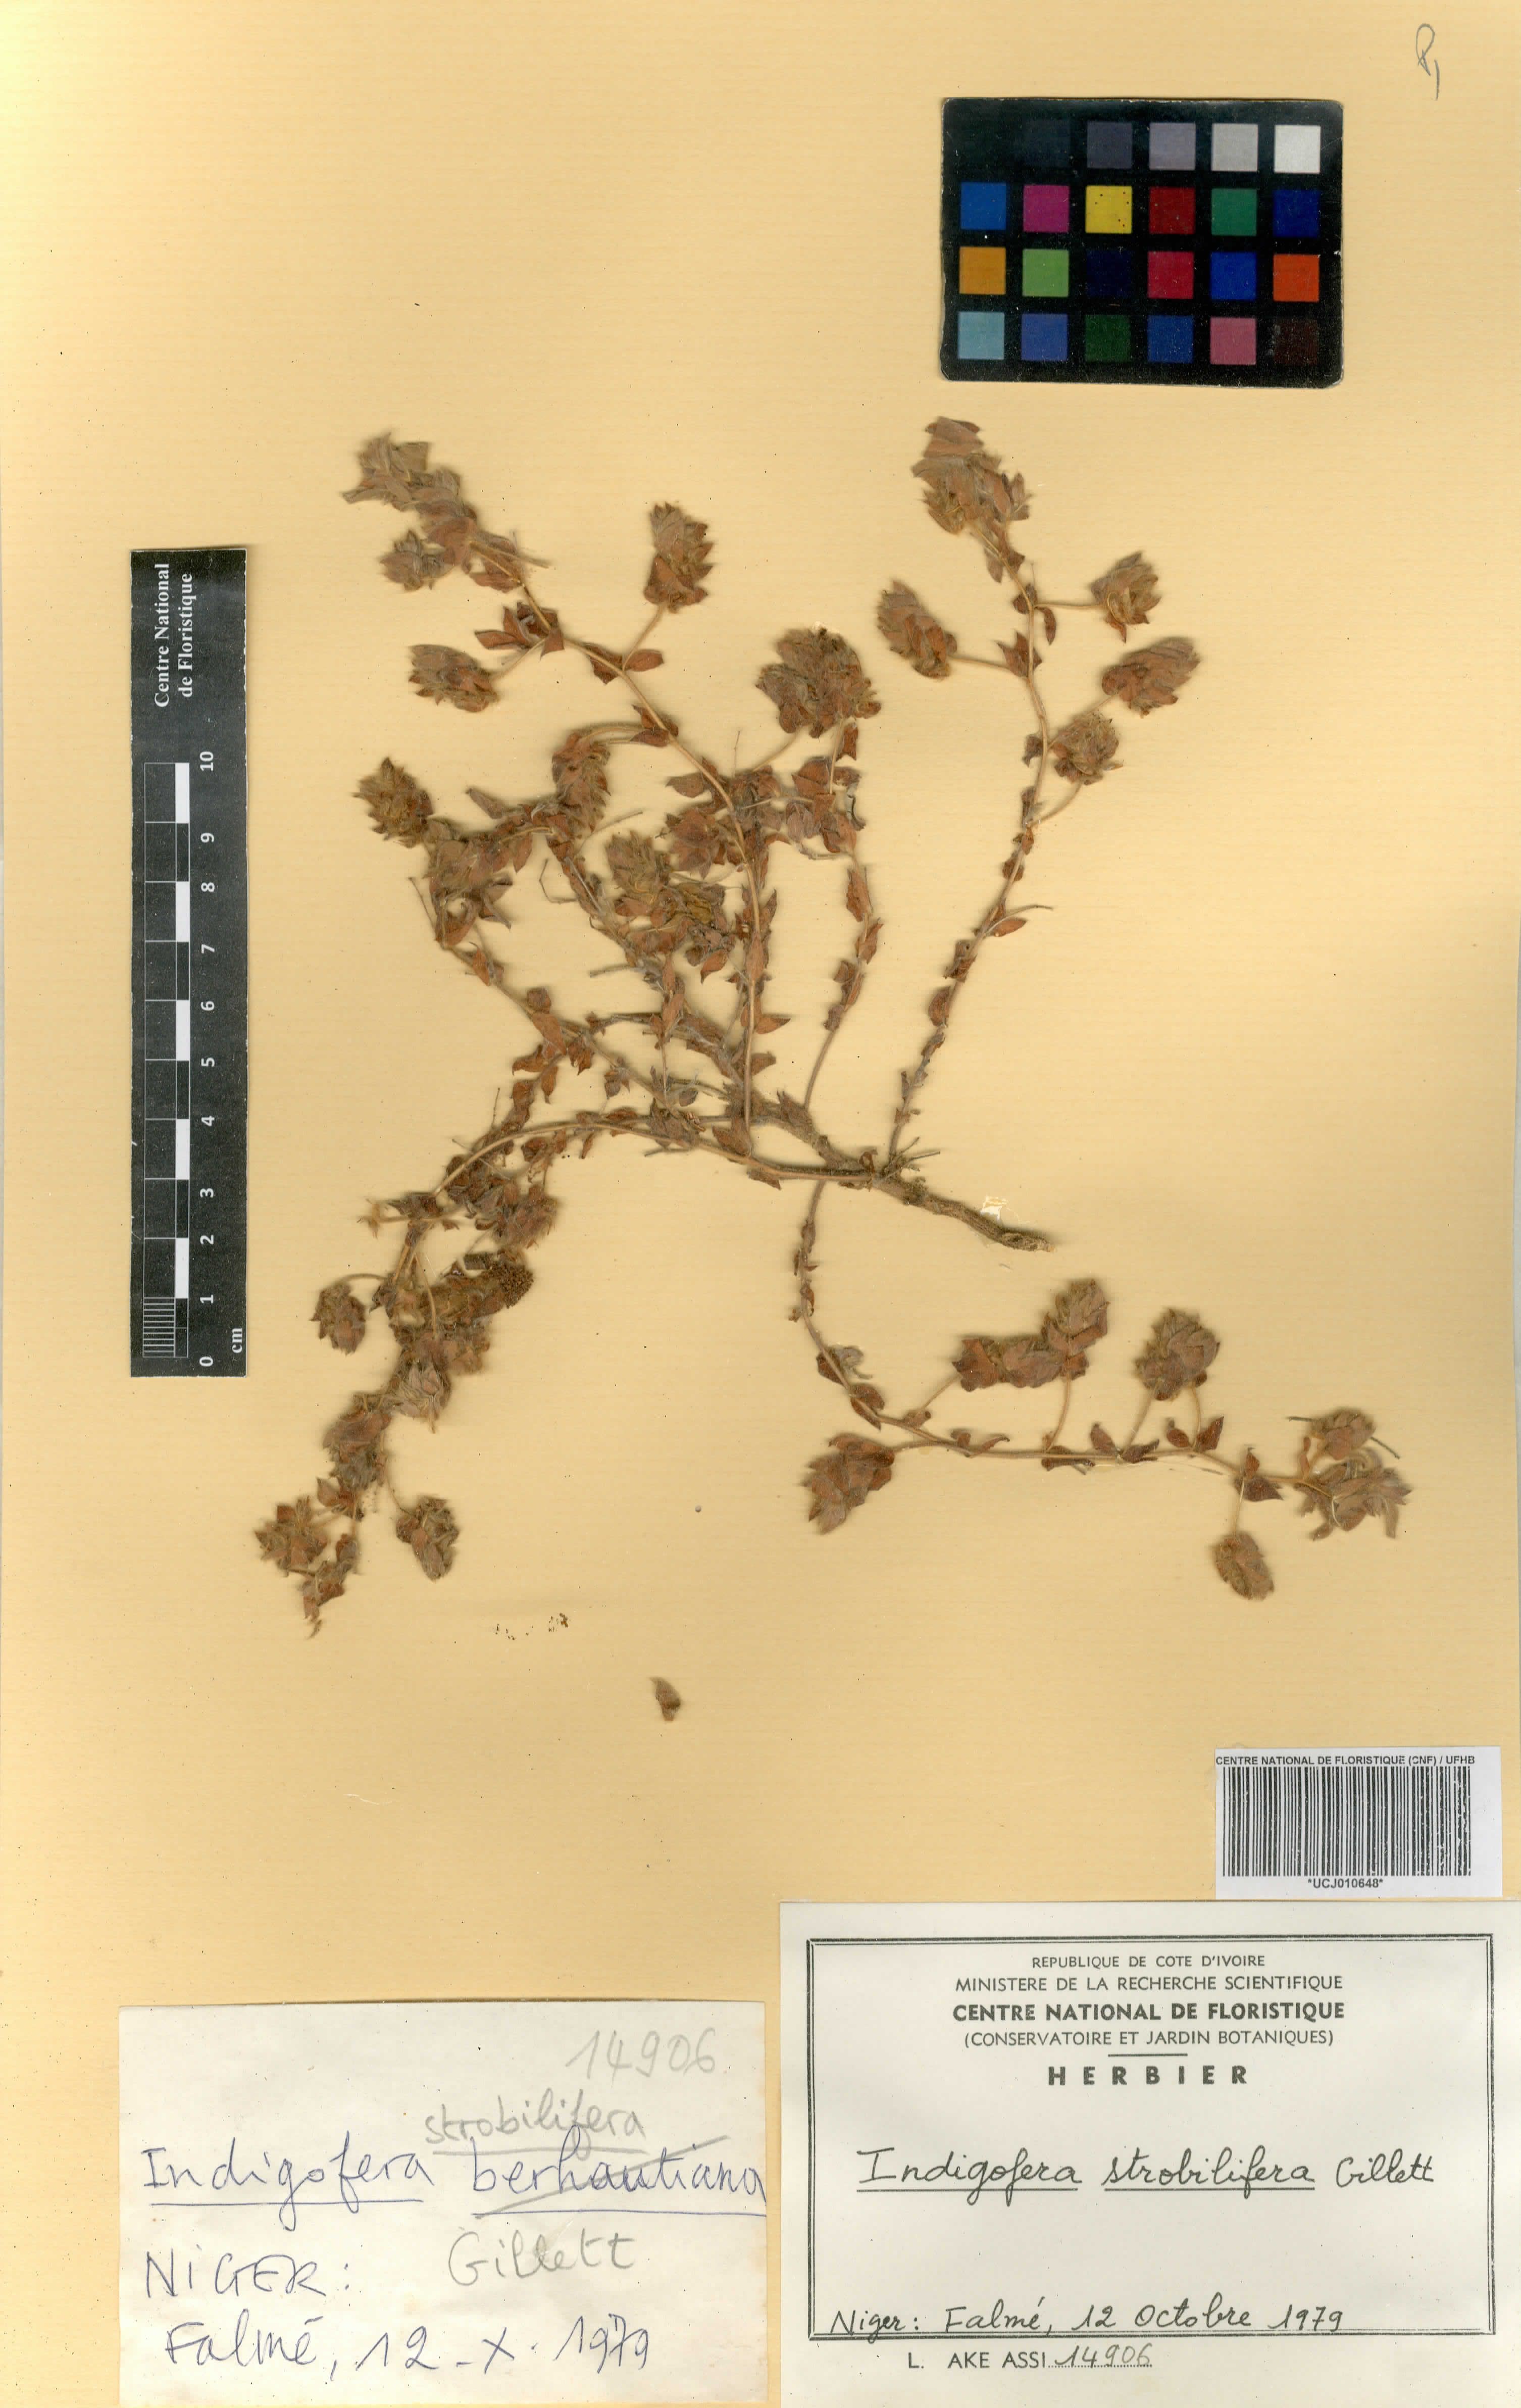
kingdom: Plantae
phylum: Tracheophyta
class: Magnoliopsida
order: Fabales
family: Fabaceae
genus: Indigofera
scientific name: Indigofera suffruticosa
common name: Anil de pasto
